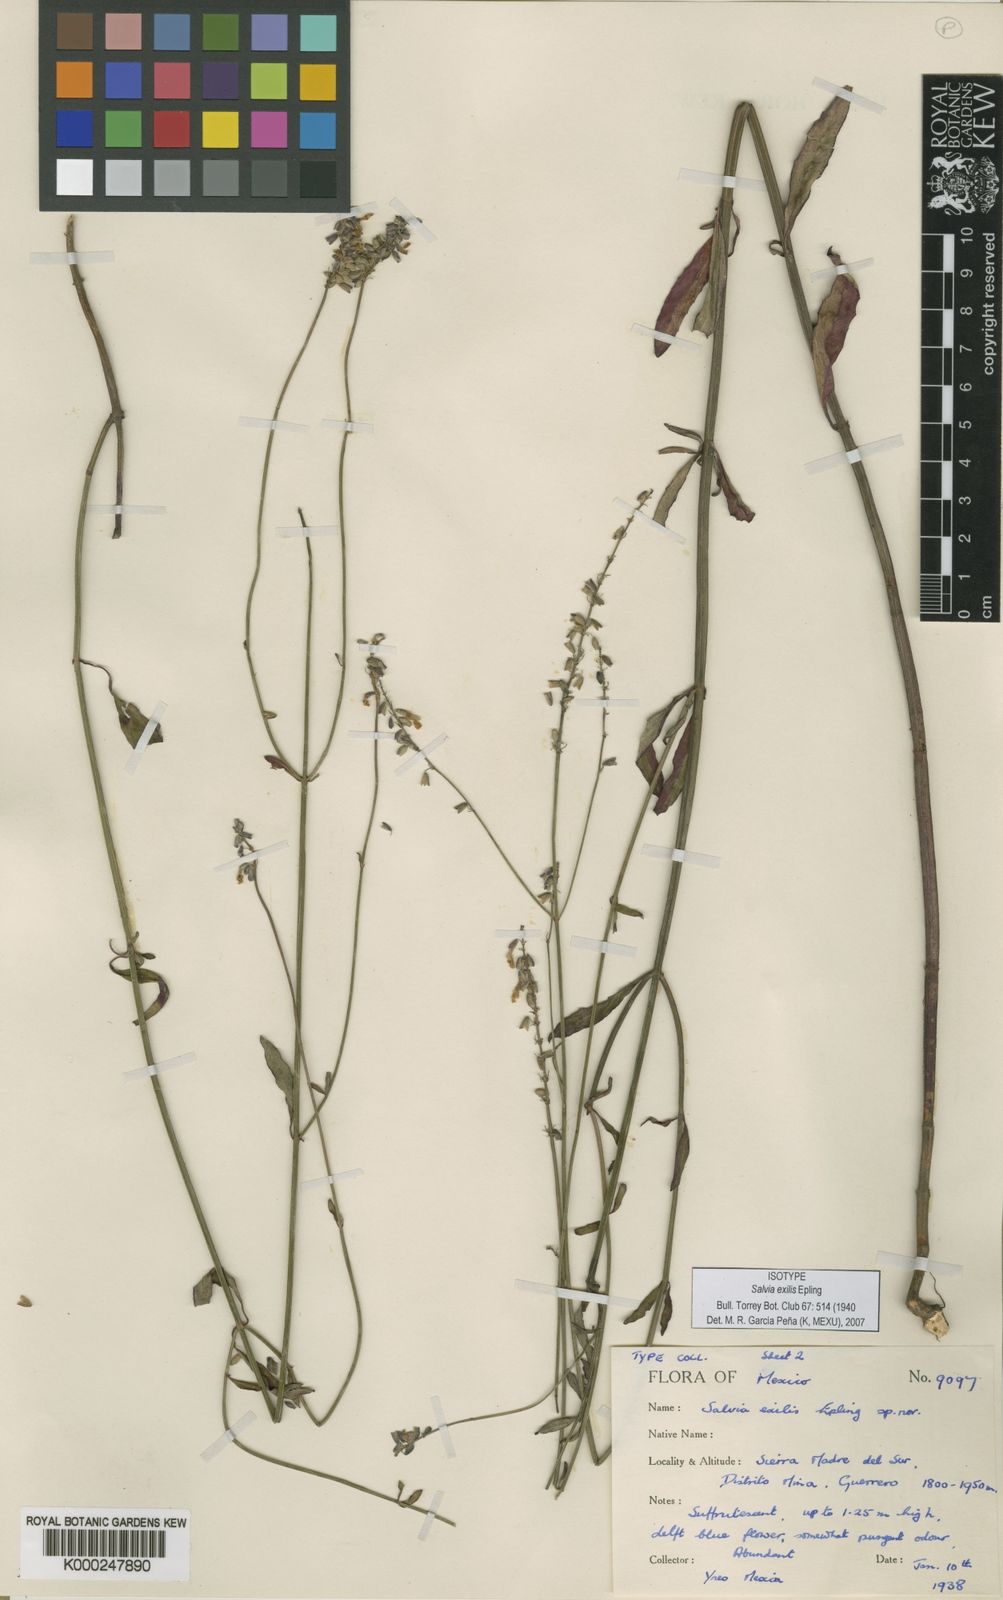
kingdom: Plantae
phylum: Tracheophyta
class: Magnoliopsida
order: Lamiales
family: Lamiaceae
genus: Salvia
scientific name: Salvia exilis
